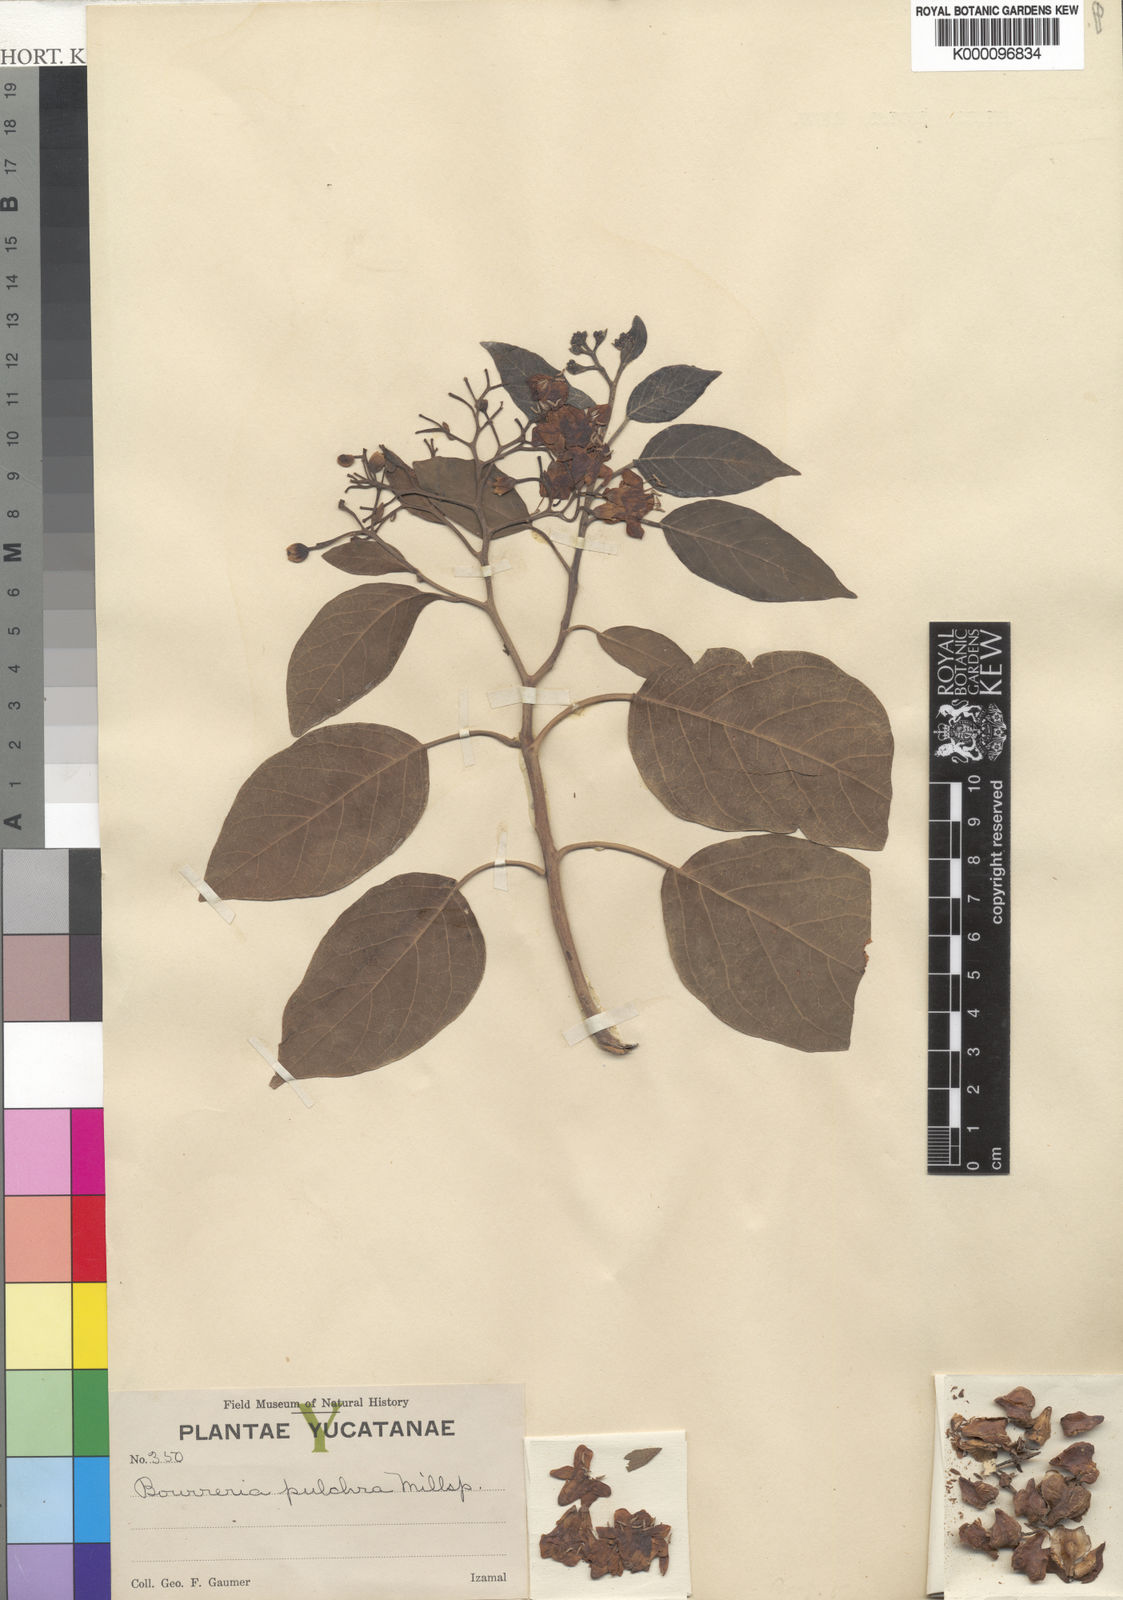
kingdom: Plantae
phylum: Tracheophyta
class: Magnoliopsida
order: Boraginales
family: Ehretiaceae
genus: Bourreria
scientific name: Bourreria
